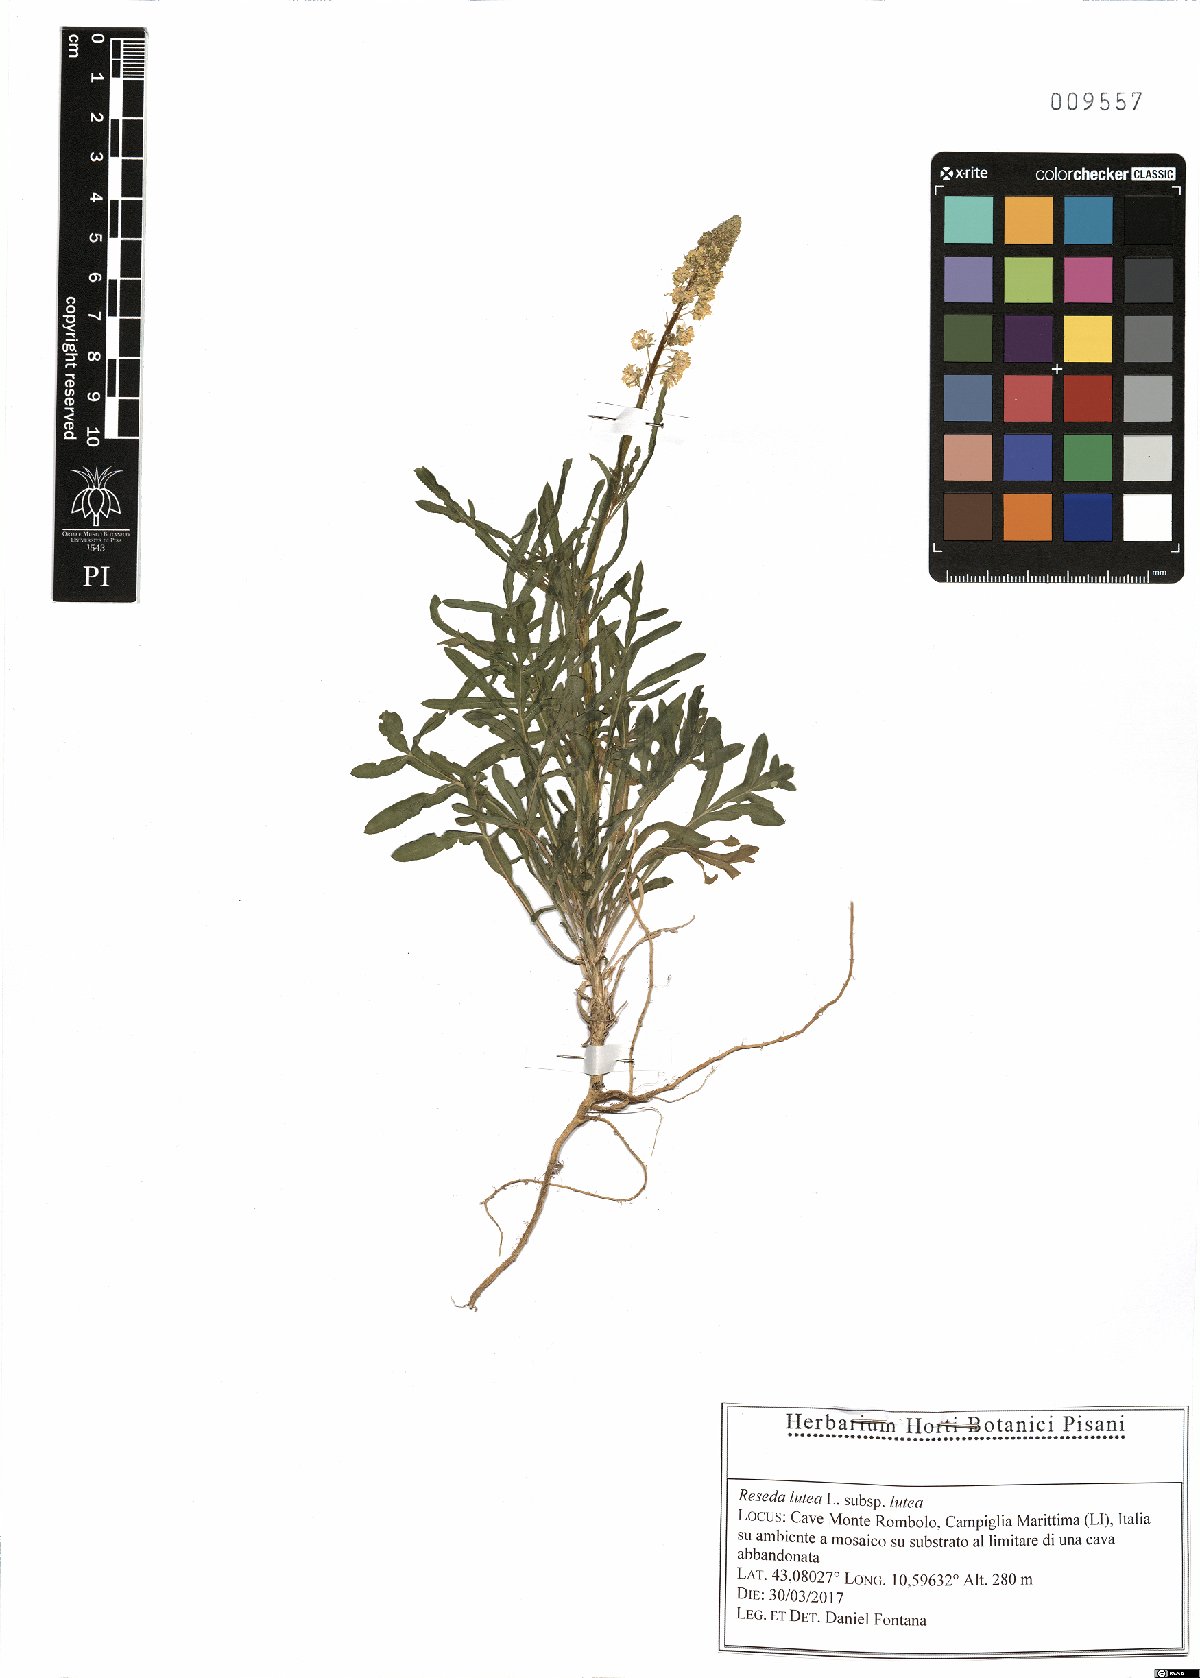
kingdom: Plantae
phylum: Tracheophyta
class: Magnoliopsida
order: Brassicales
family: Resedaceae
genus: Reseda
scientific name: Reseda lutea
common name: Wild mignonette
